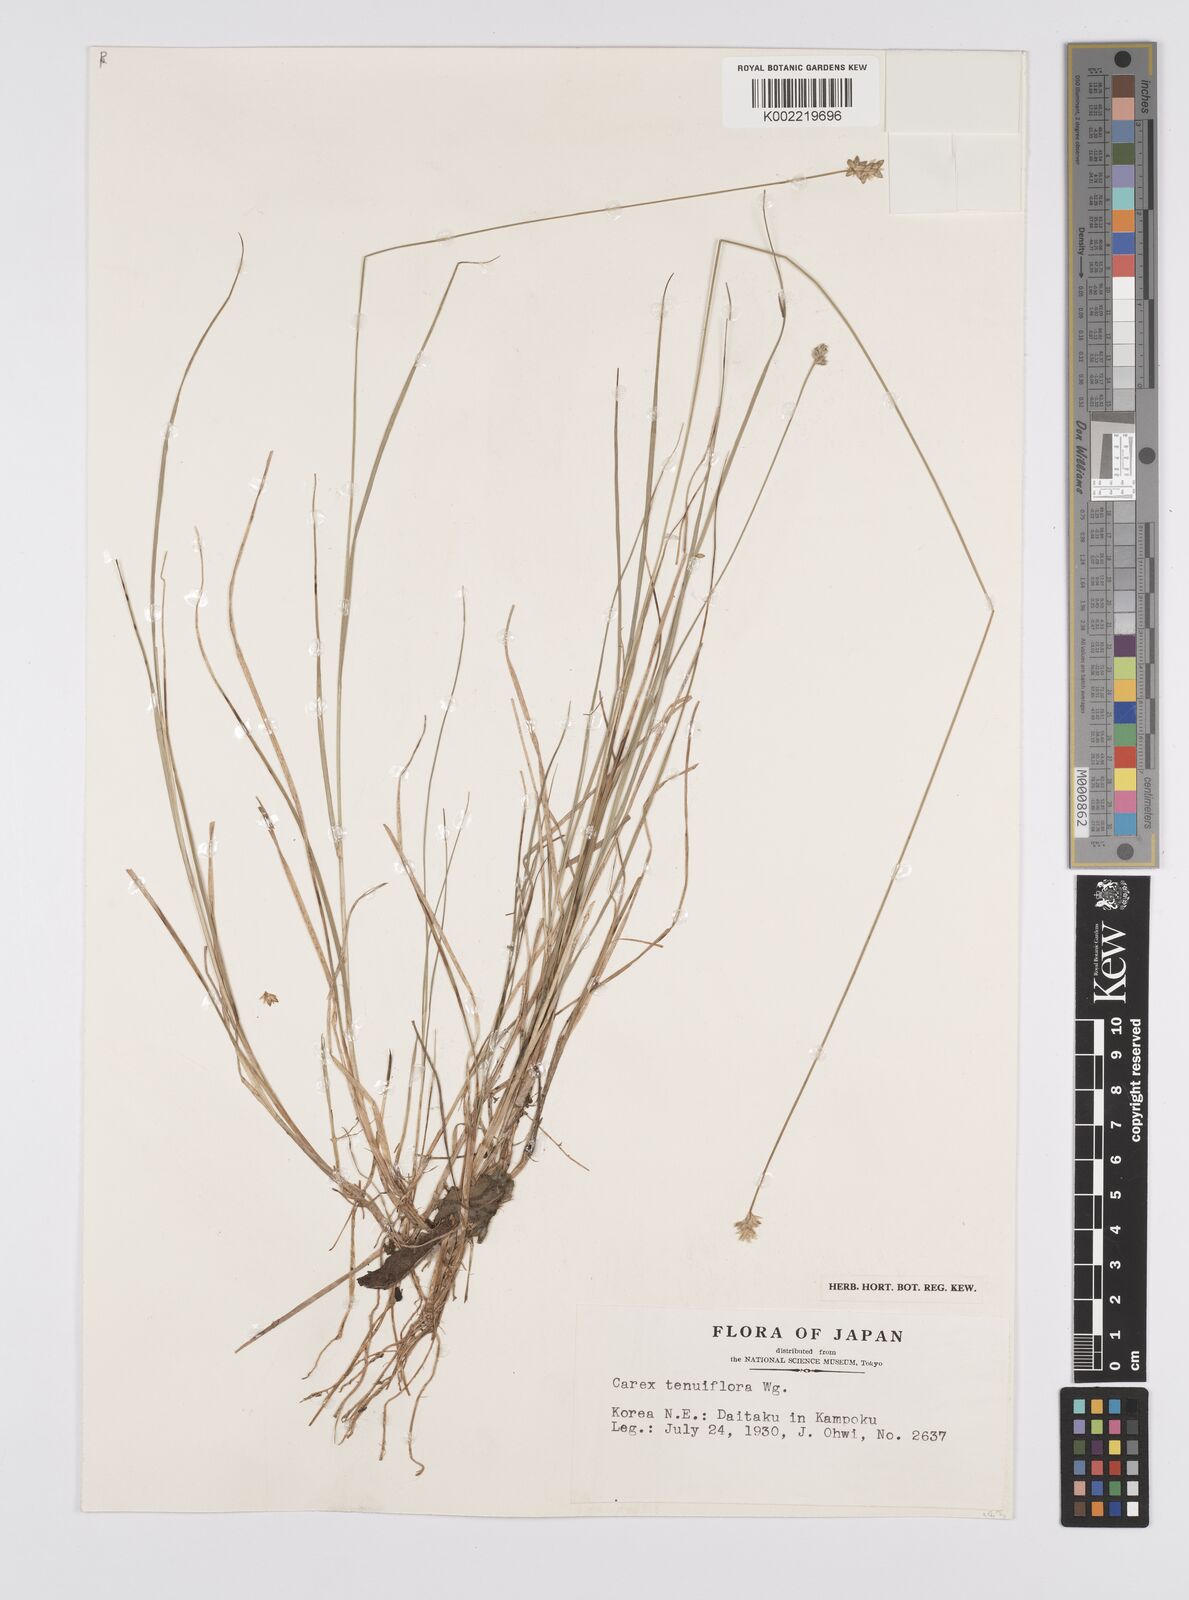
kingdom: Plantae
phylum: Tracheophyta
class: Liliopsida
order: Poales
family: Cyperaceae
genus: Carex
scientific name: Carex tenuiflora
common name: Sparse-flowered sedge
